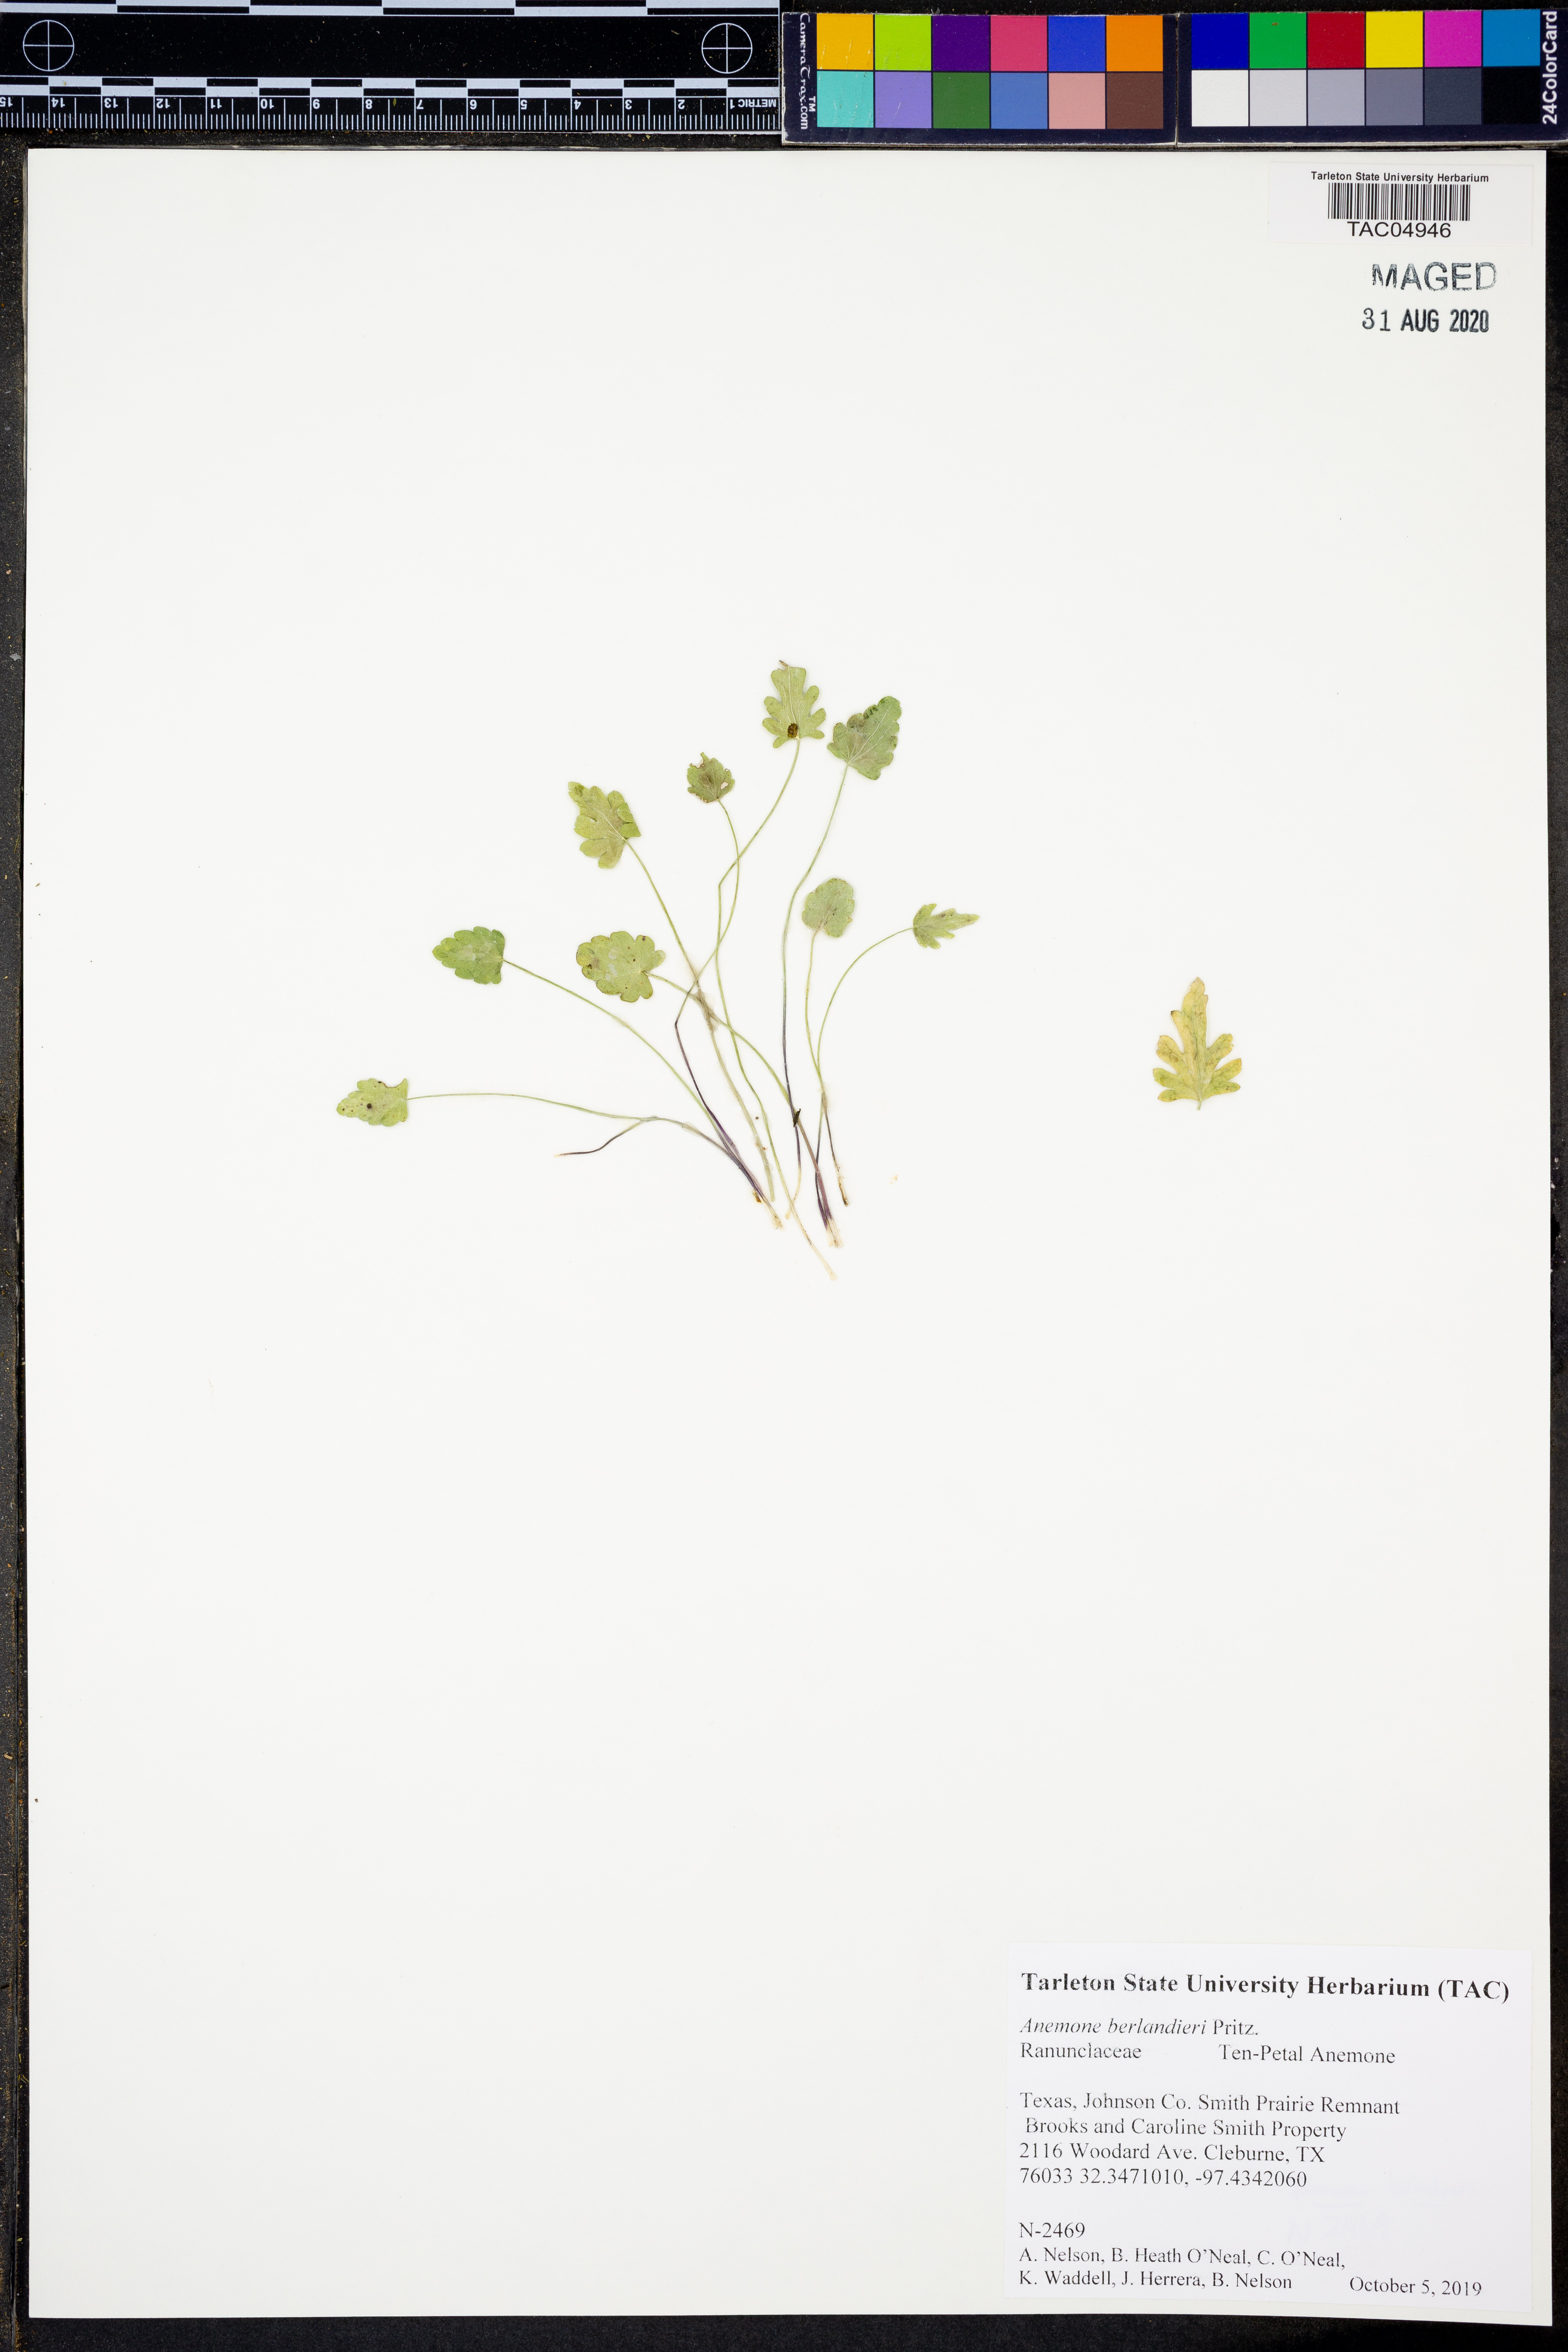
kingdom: Plantae
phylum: Tracheophyta
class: Magnoliopsida
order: Ranunculales
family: Ranunculaceae
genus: Anemone
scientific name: Anemone berlandieri
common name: Ten-petal anemone
